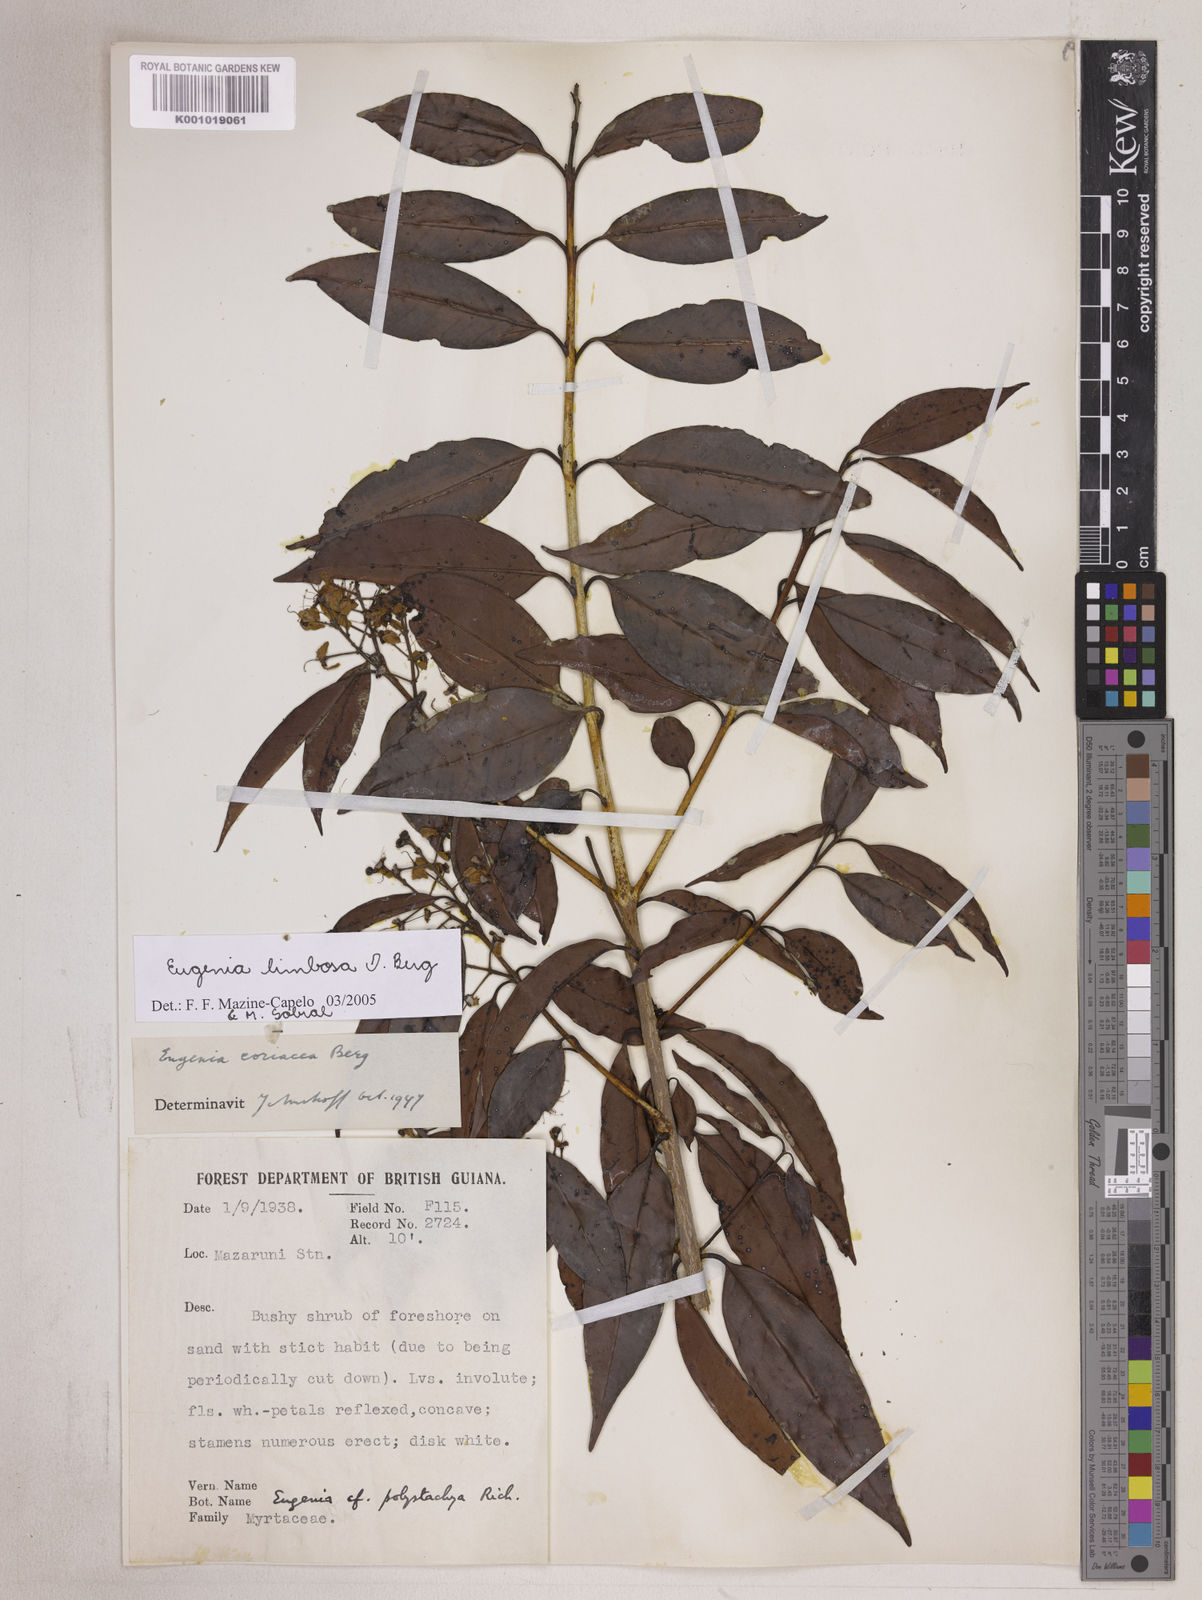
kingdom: Plantae
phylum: Tracheophyta
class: Magnoliopsida
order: Myrtales
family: Myrtaceae
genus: Eugenia
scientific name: Eugenia limbosa
